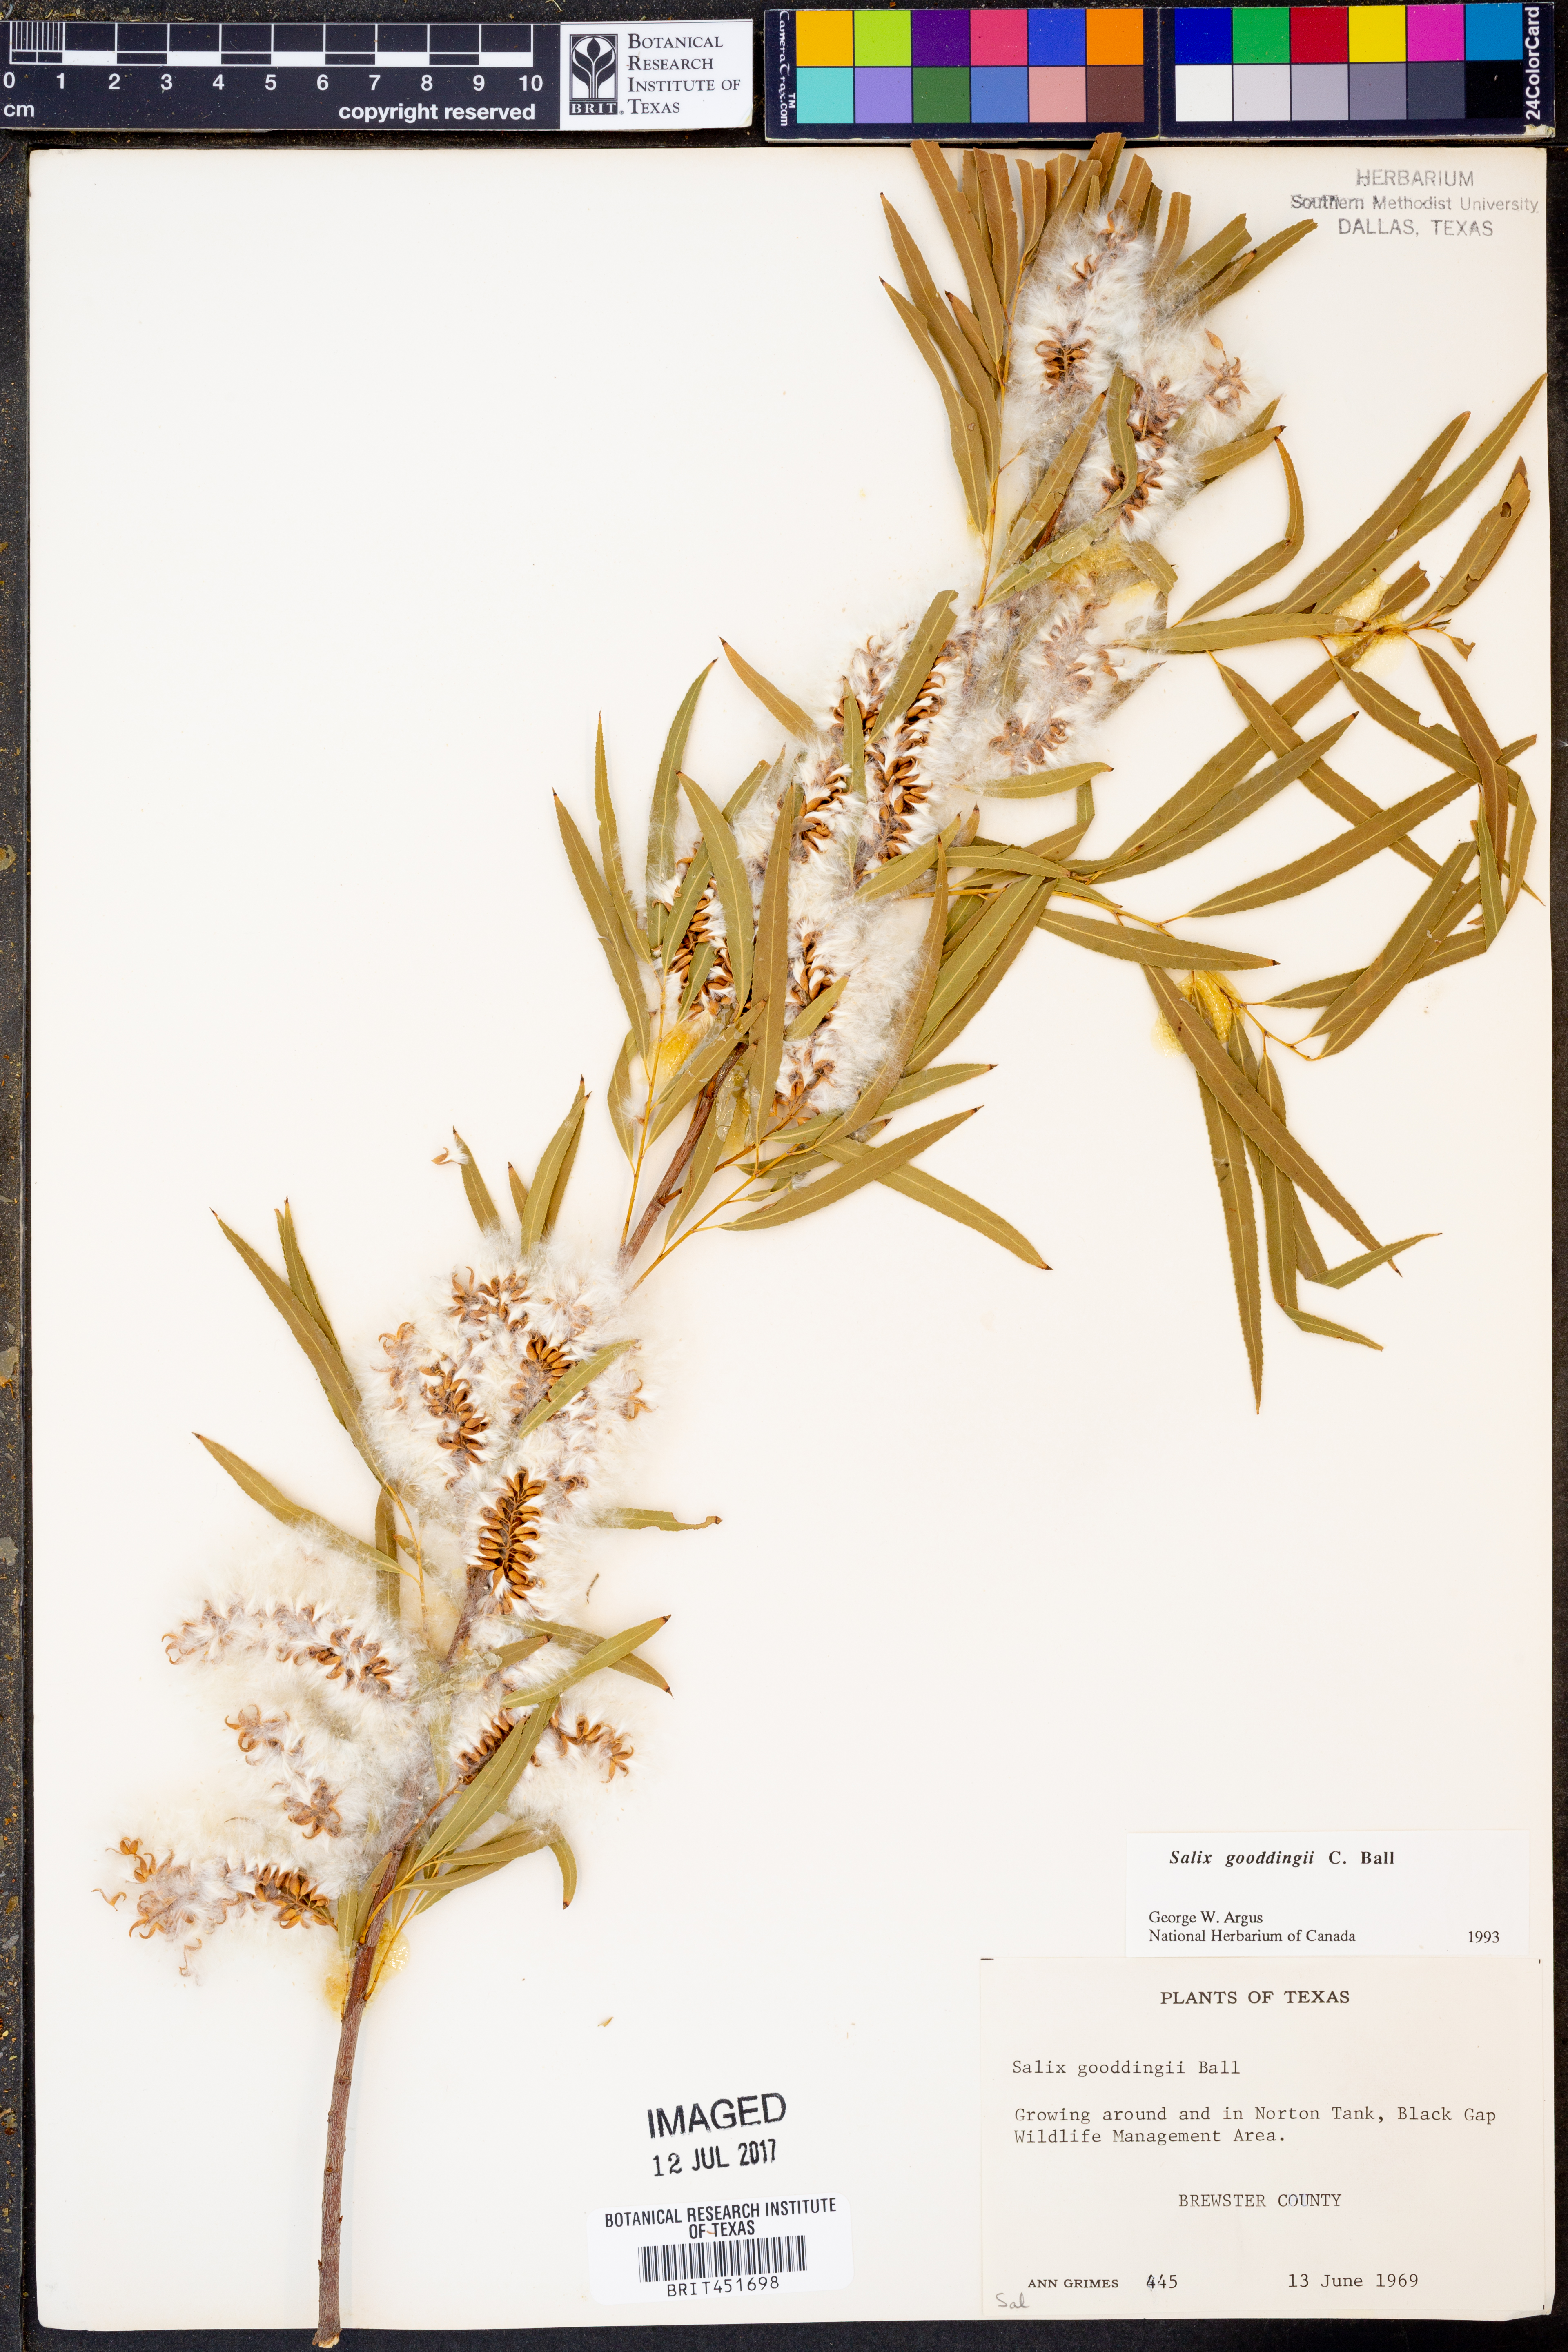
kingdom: Plantae
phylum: Tracheophyta
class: Magnoliopsida
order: Malpighiales
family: Salicaceae
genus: Salix
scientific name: Salix gooddingii
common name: Goodding's willow
